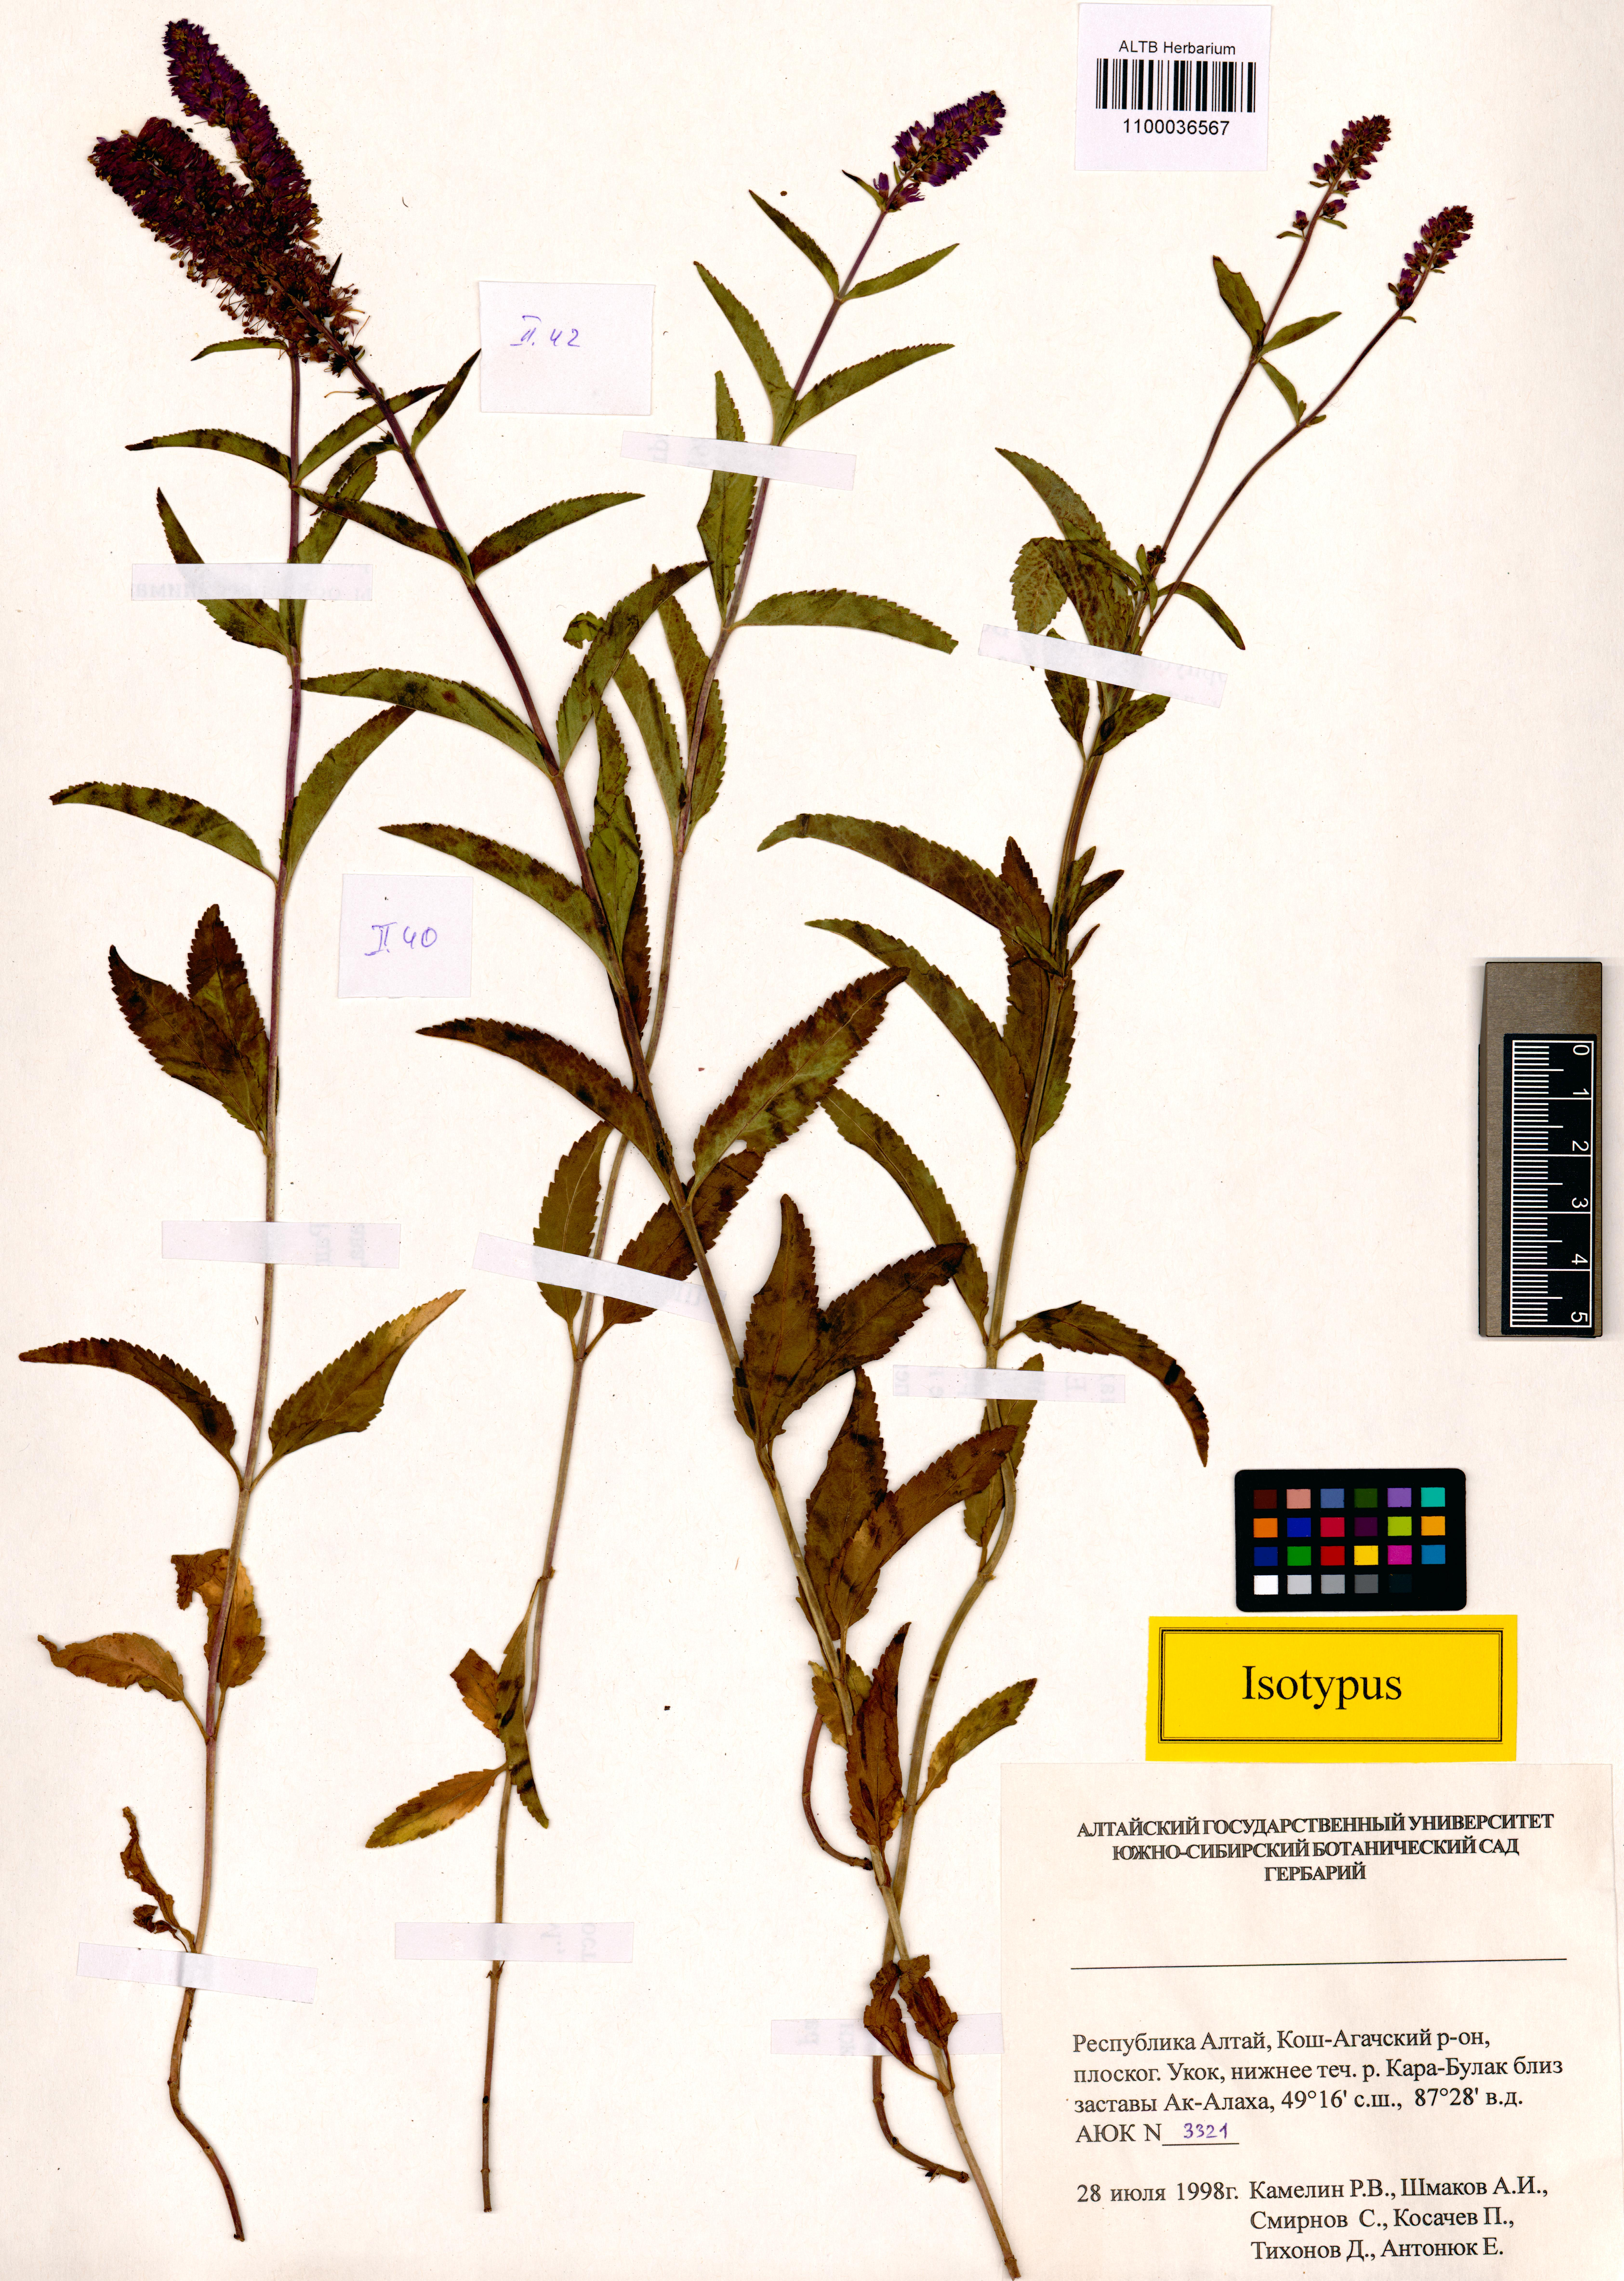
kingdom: Plantae
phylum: Tracheophyta
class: Magnoliopsida
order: Lamiales
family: Plantaginaceae
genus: Veronica
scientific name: Veronica schmakovii
